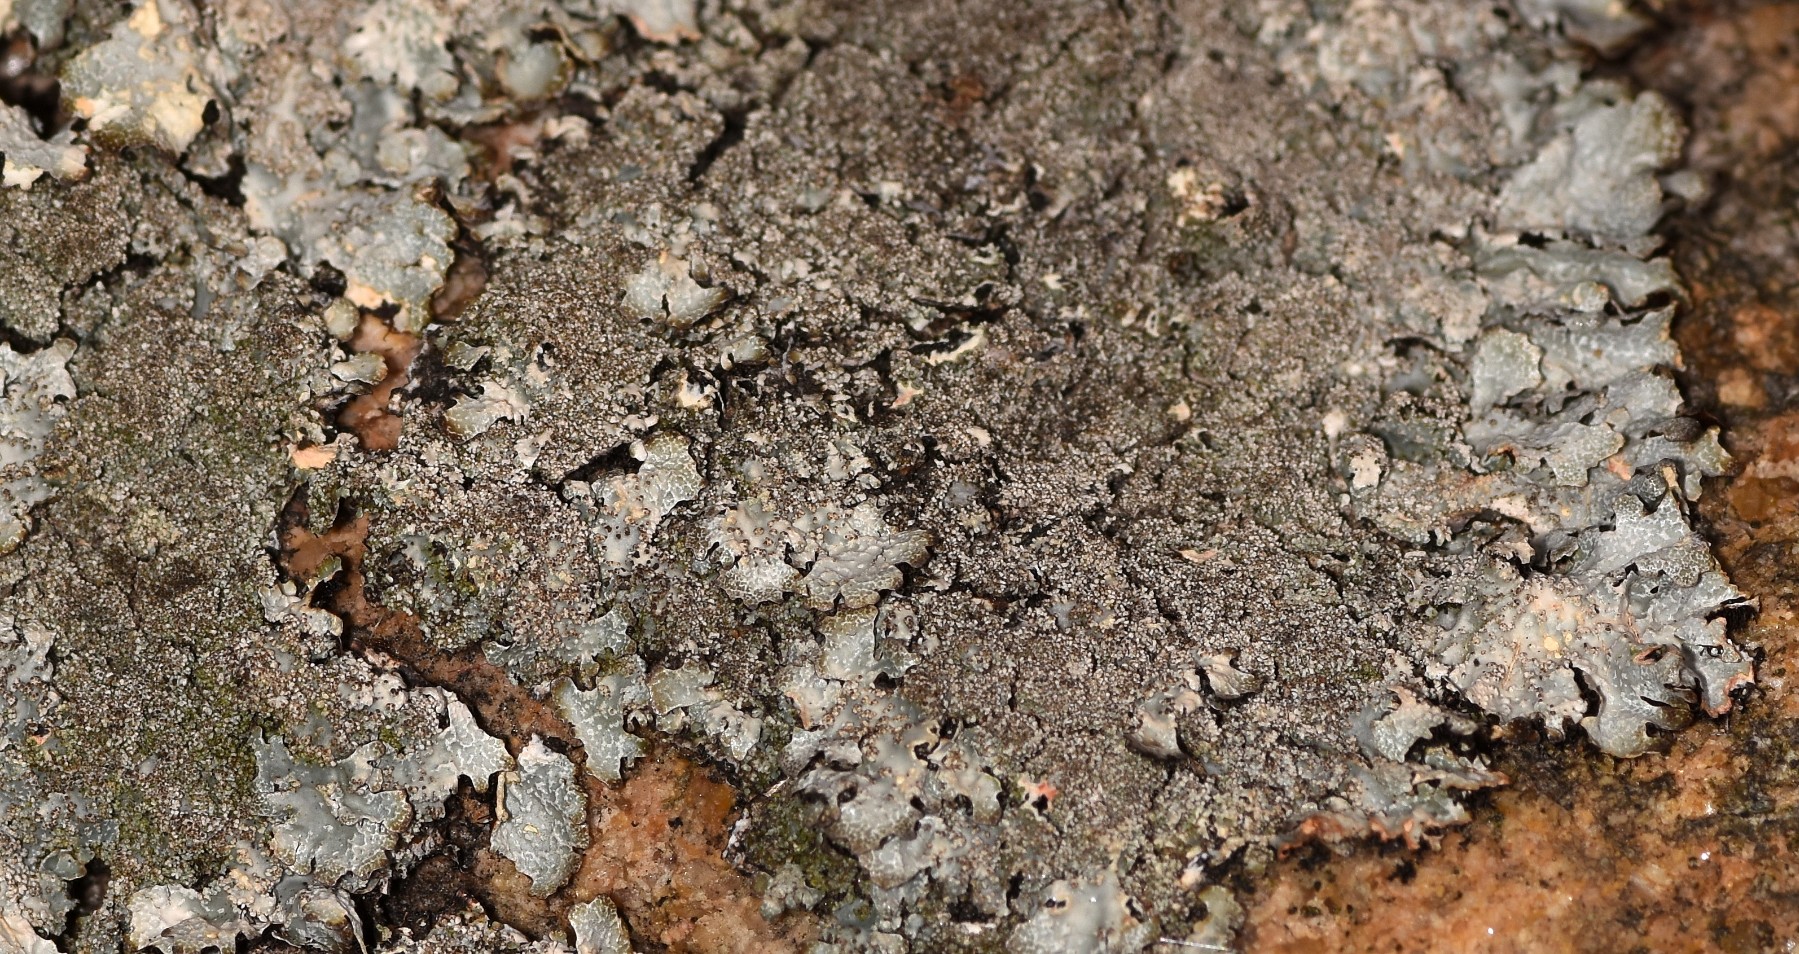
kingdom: Fungi
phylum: Ascomycota
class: Lecanoromycetes
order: Lecanorales
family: Parmeliaceae
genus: Parmelia
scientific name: Parmelia saxatilis
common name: farve-skållav
